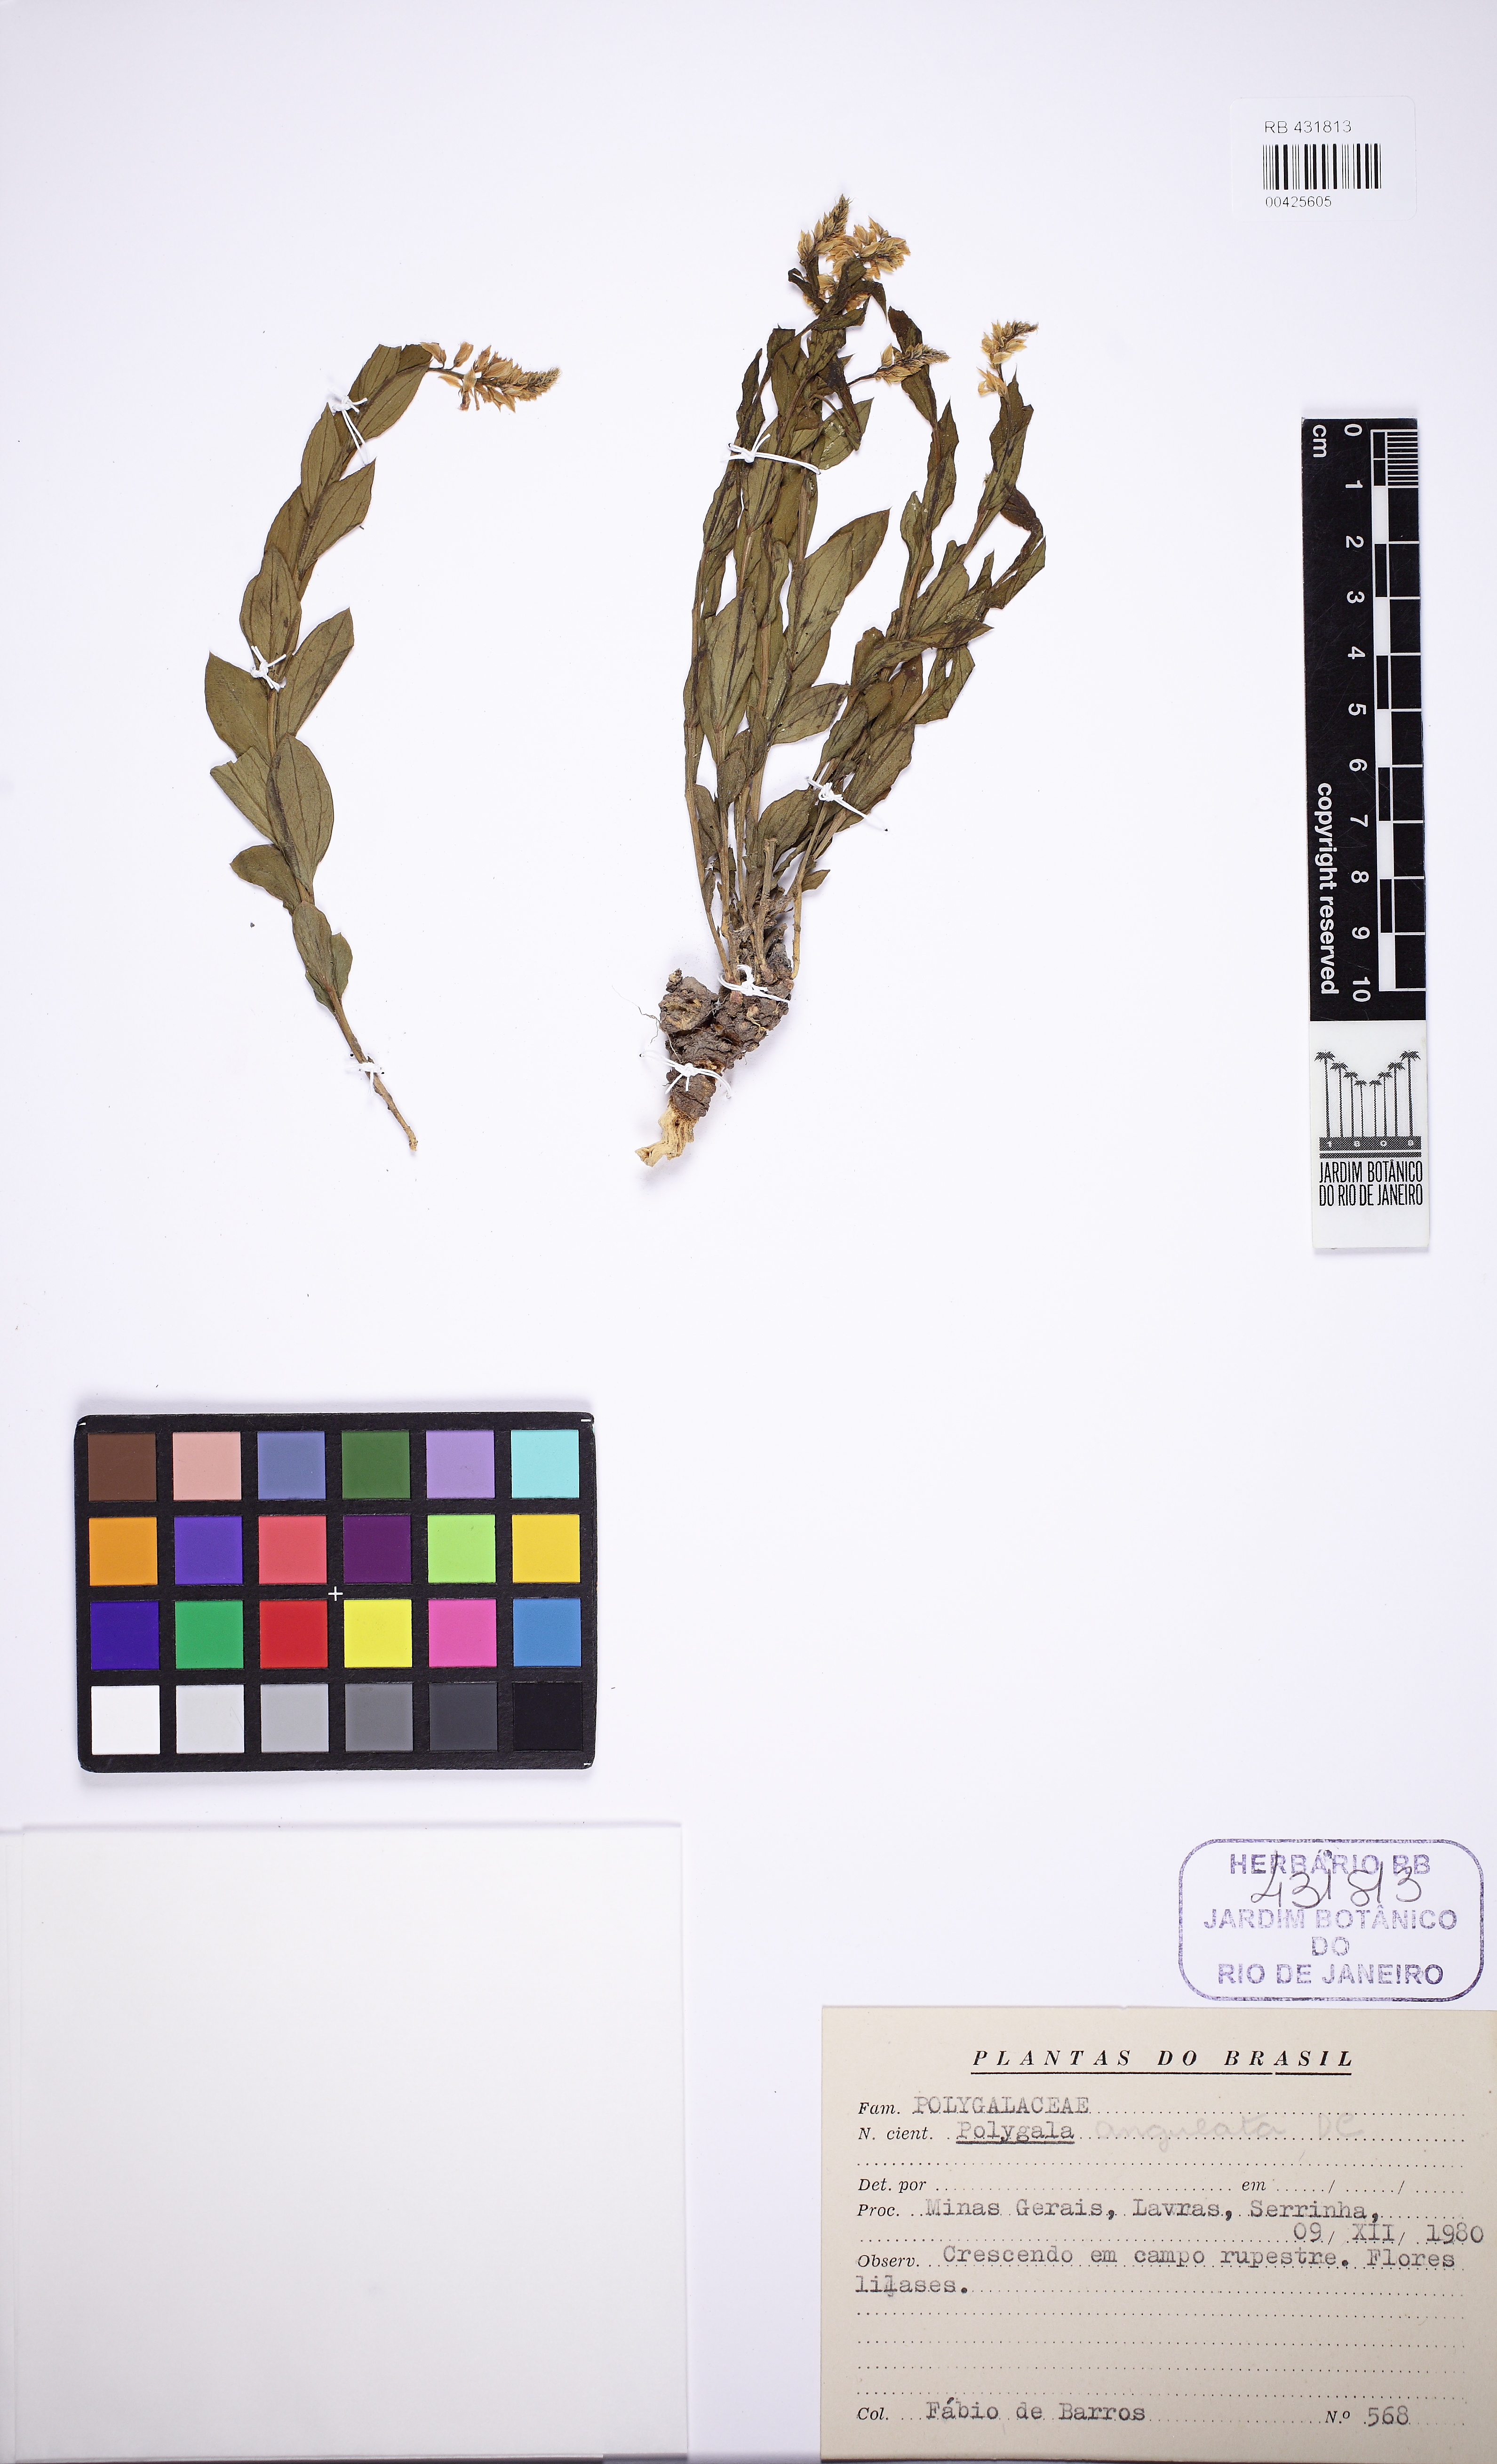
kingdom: Plantae
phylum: Tracheophyta
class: Magnoliopsida
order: Fabales
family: Polygalaceae
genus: Polygala
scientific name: Polygala poaya
